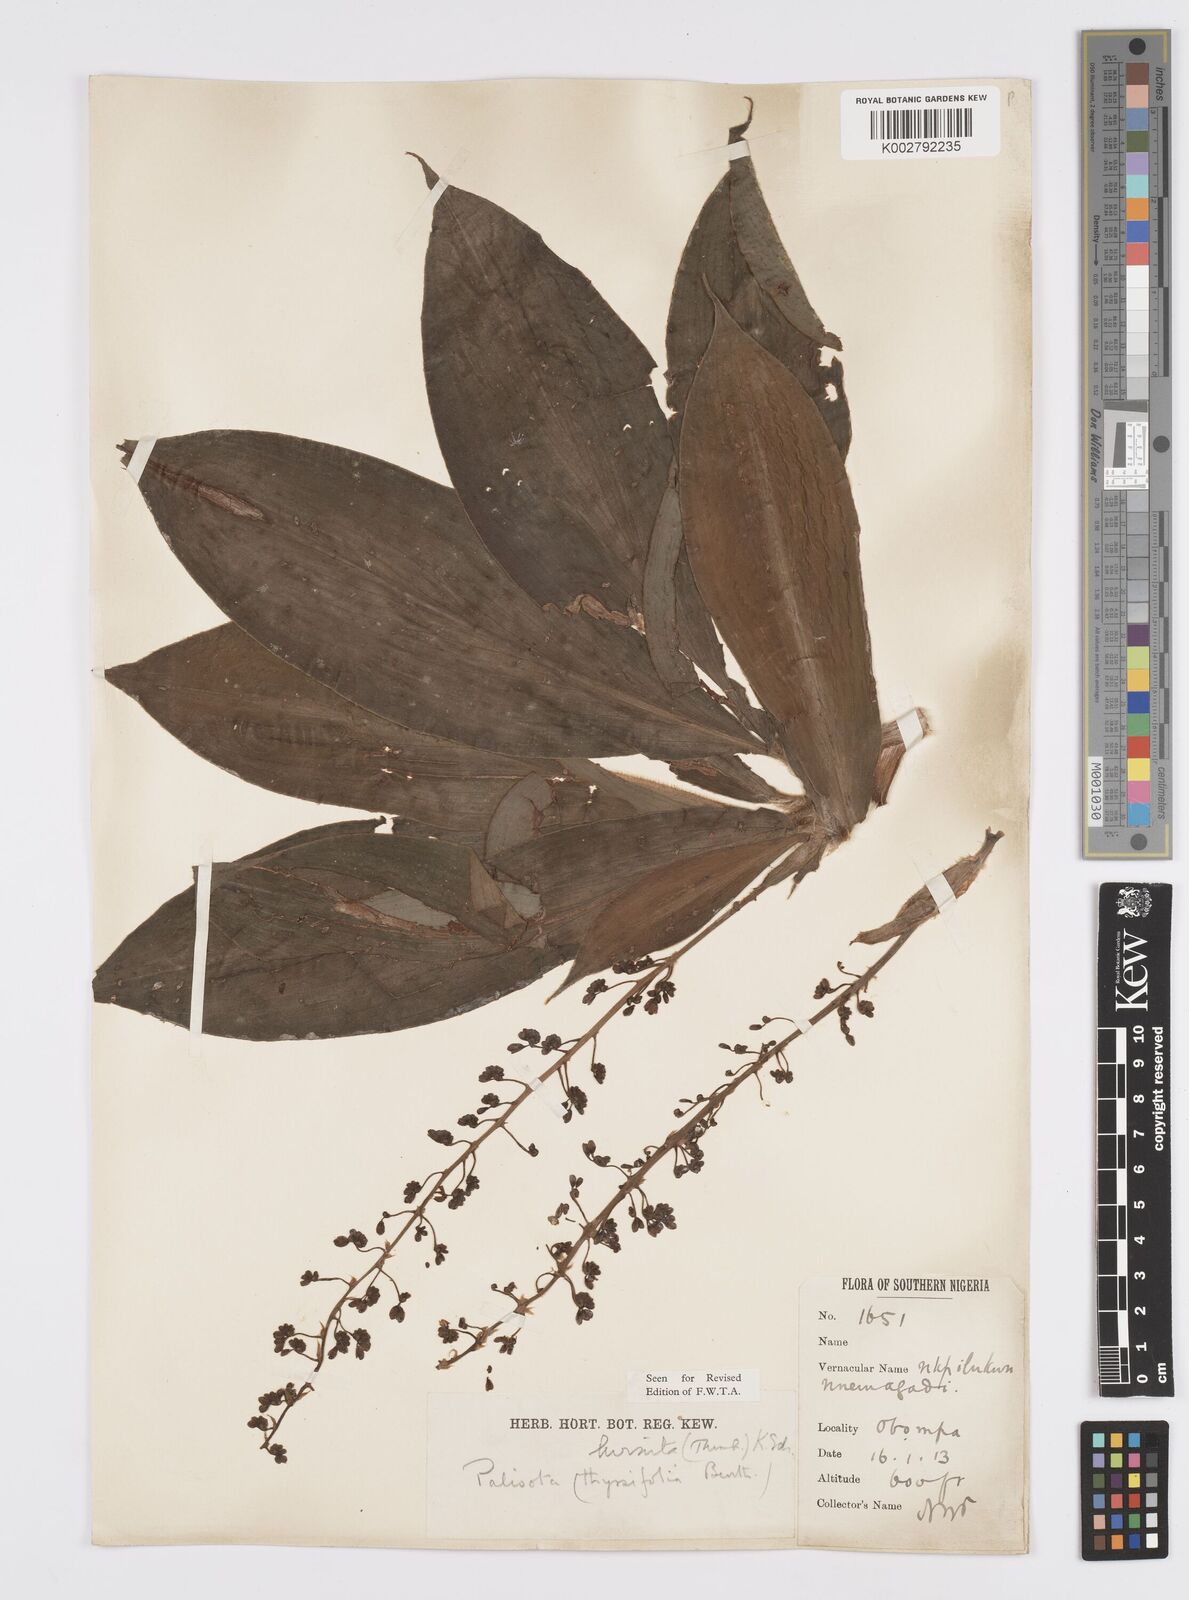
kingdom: Plantae
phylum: Tracheophyta
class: Liliopsida
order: Commelinales
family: Commelinaceae
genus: Palisota
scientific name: Palisota hirsuta
